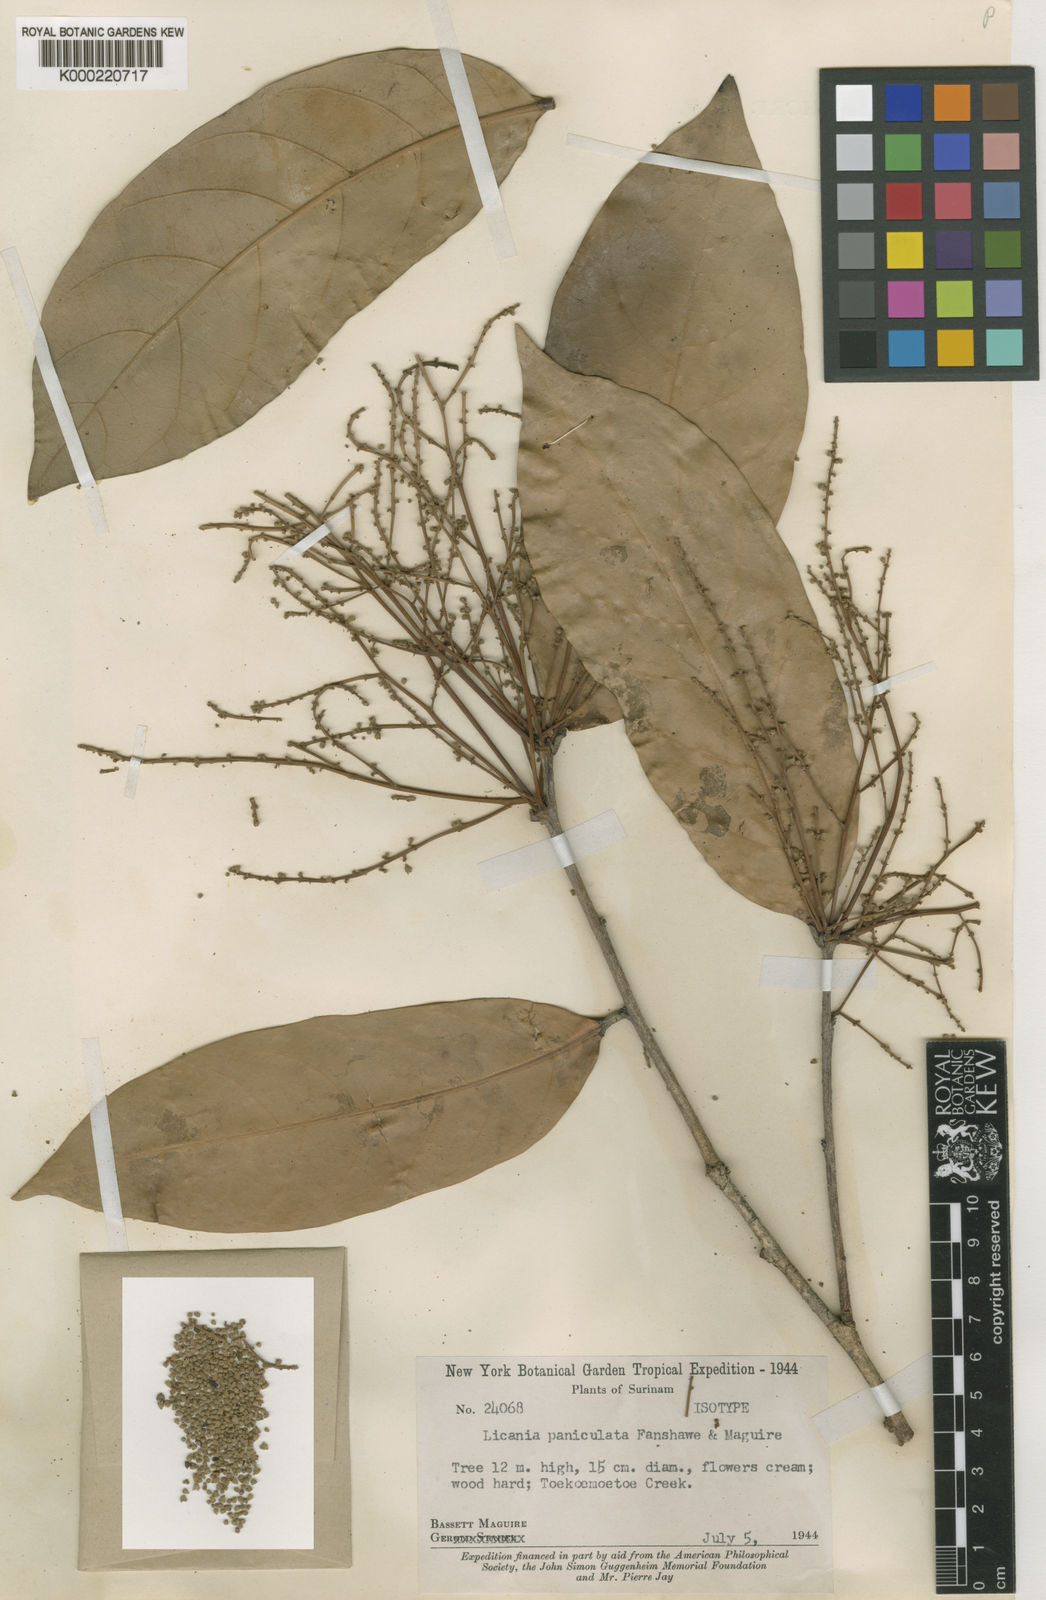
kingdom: Plantae
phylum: Tracheophyta
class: Magnoliopsida
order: Malpighiales
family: Chrysobalanaceae
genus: Licania
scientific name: Licania elliptica
